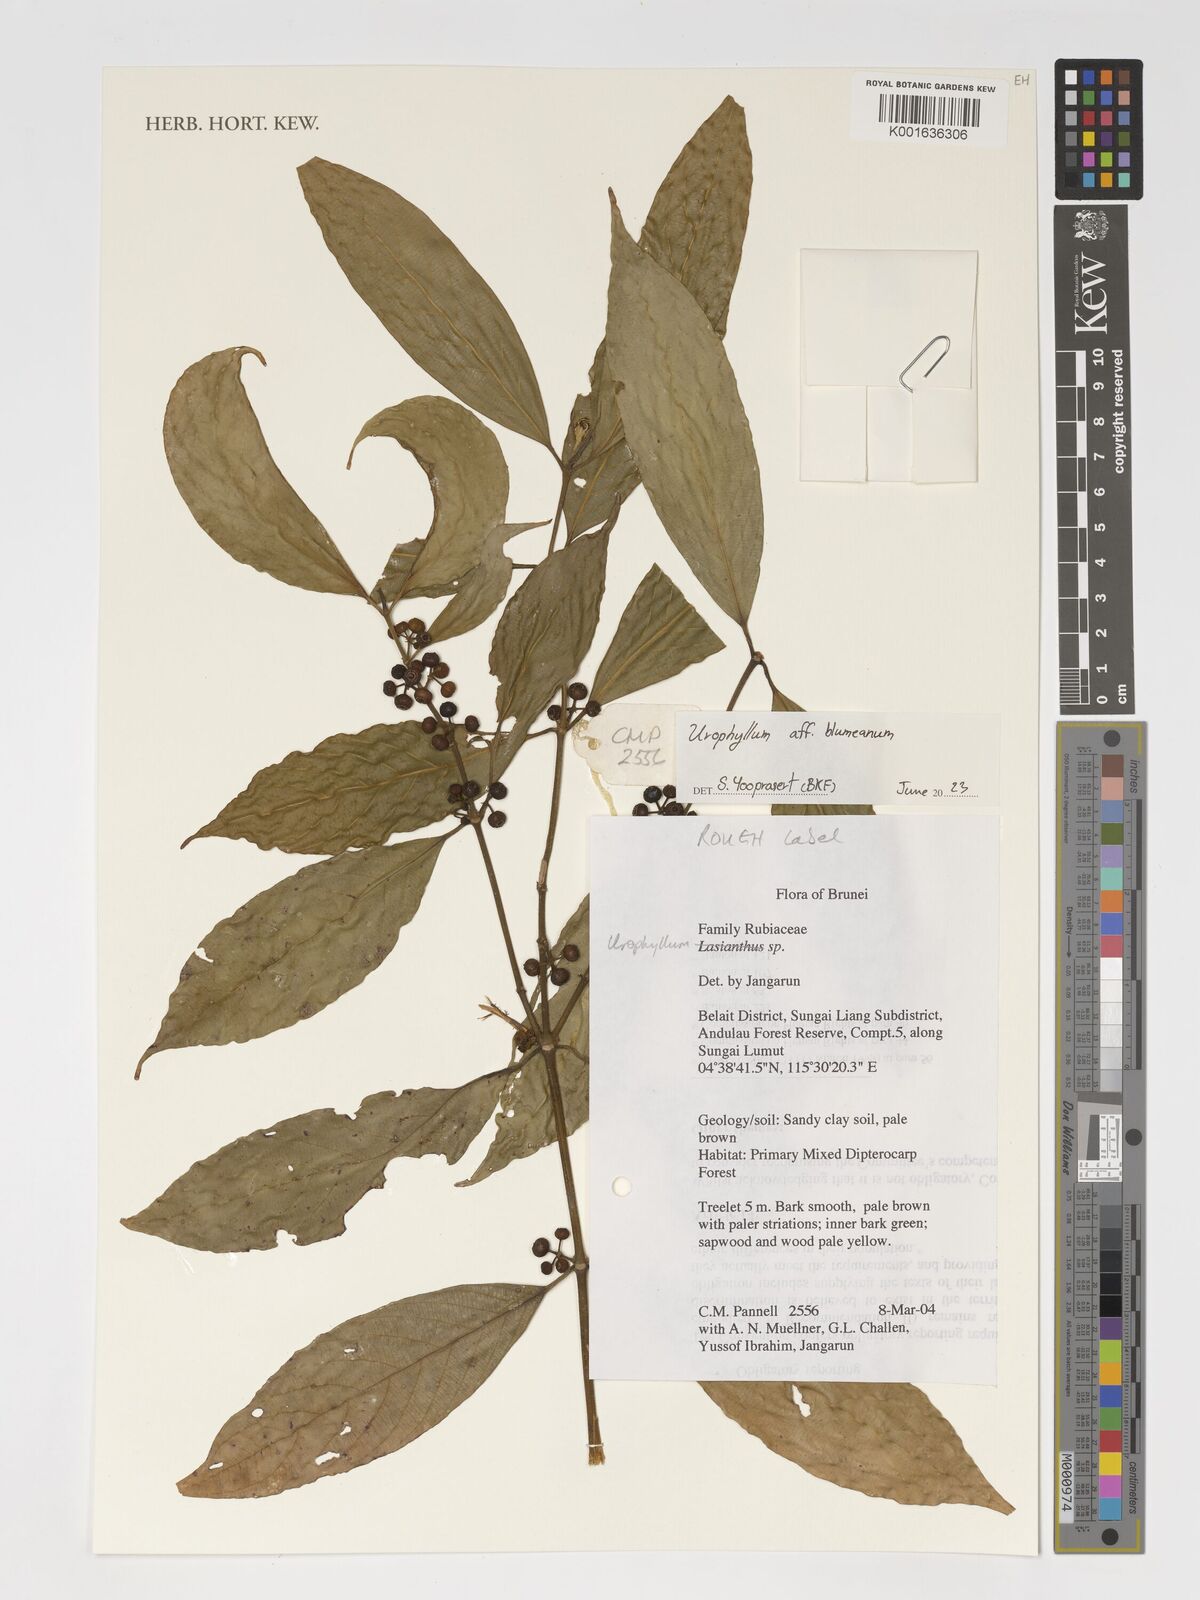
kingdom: Plantae
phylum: Tracheophyta
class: Magnoliopsida
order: Gentianales
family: Rubiaceae
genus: Urophyllum
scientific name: Urophyllum arboreum
